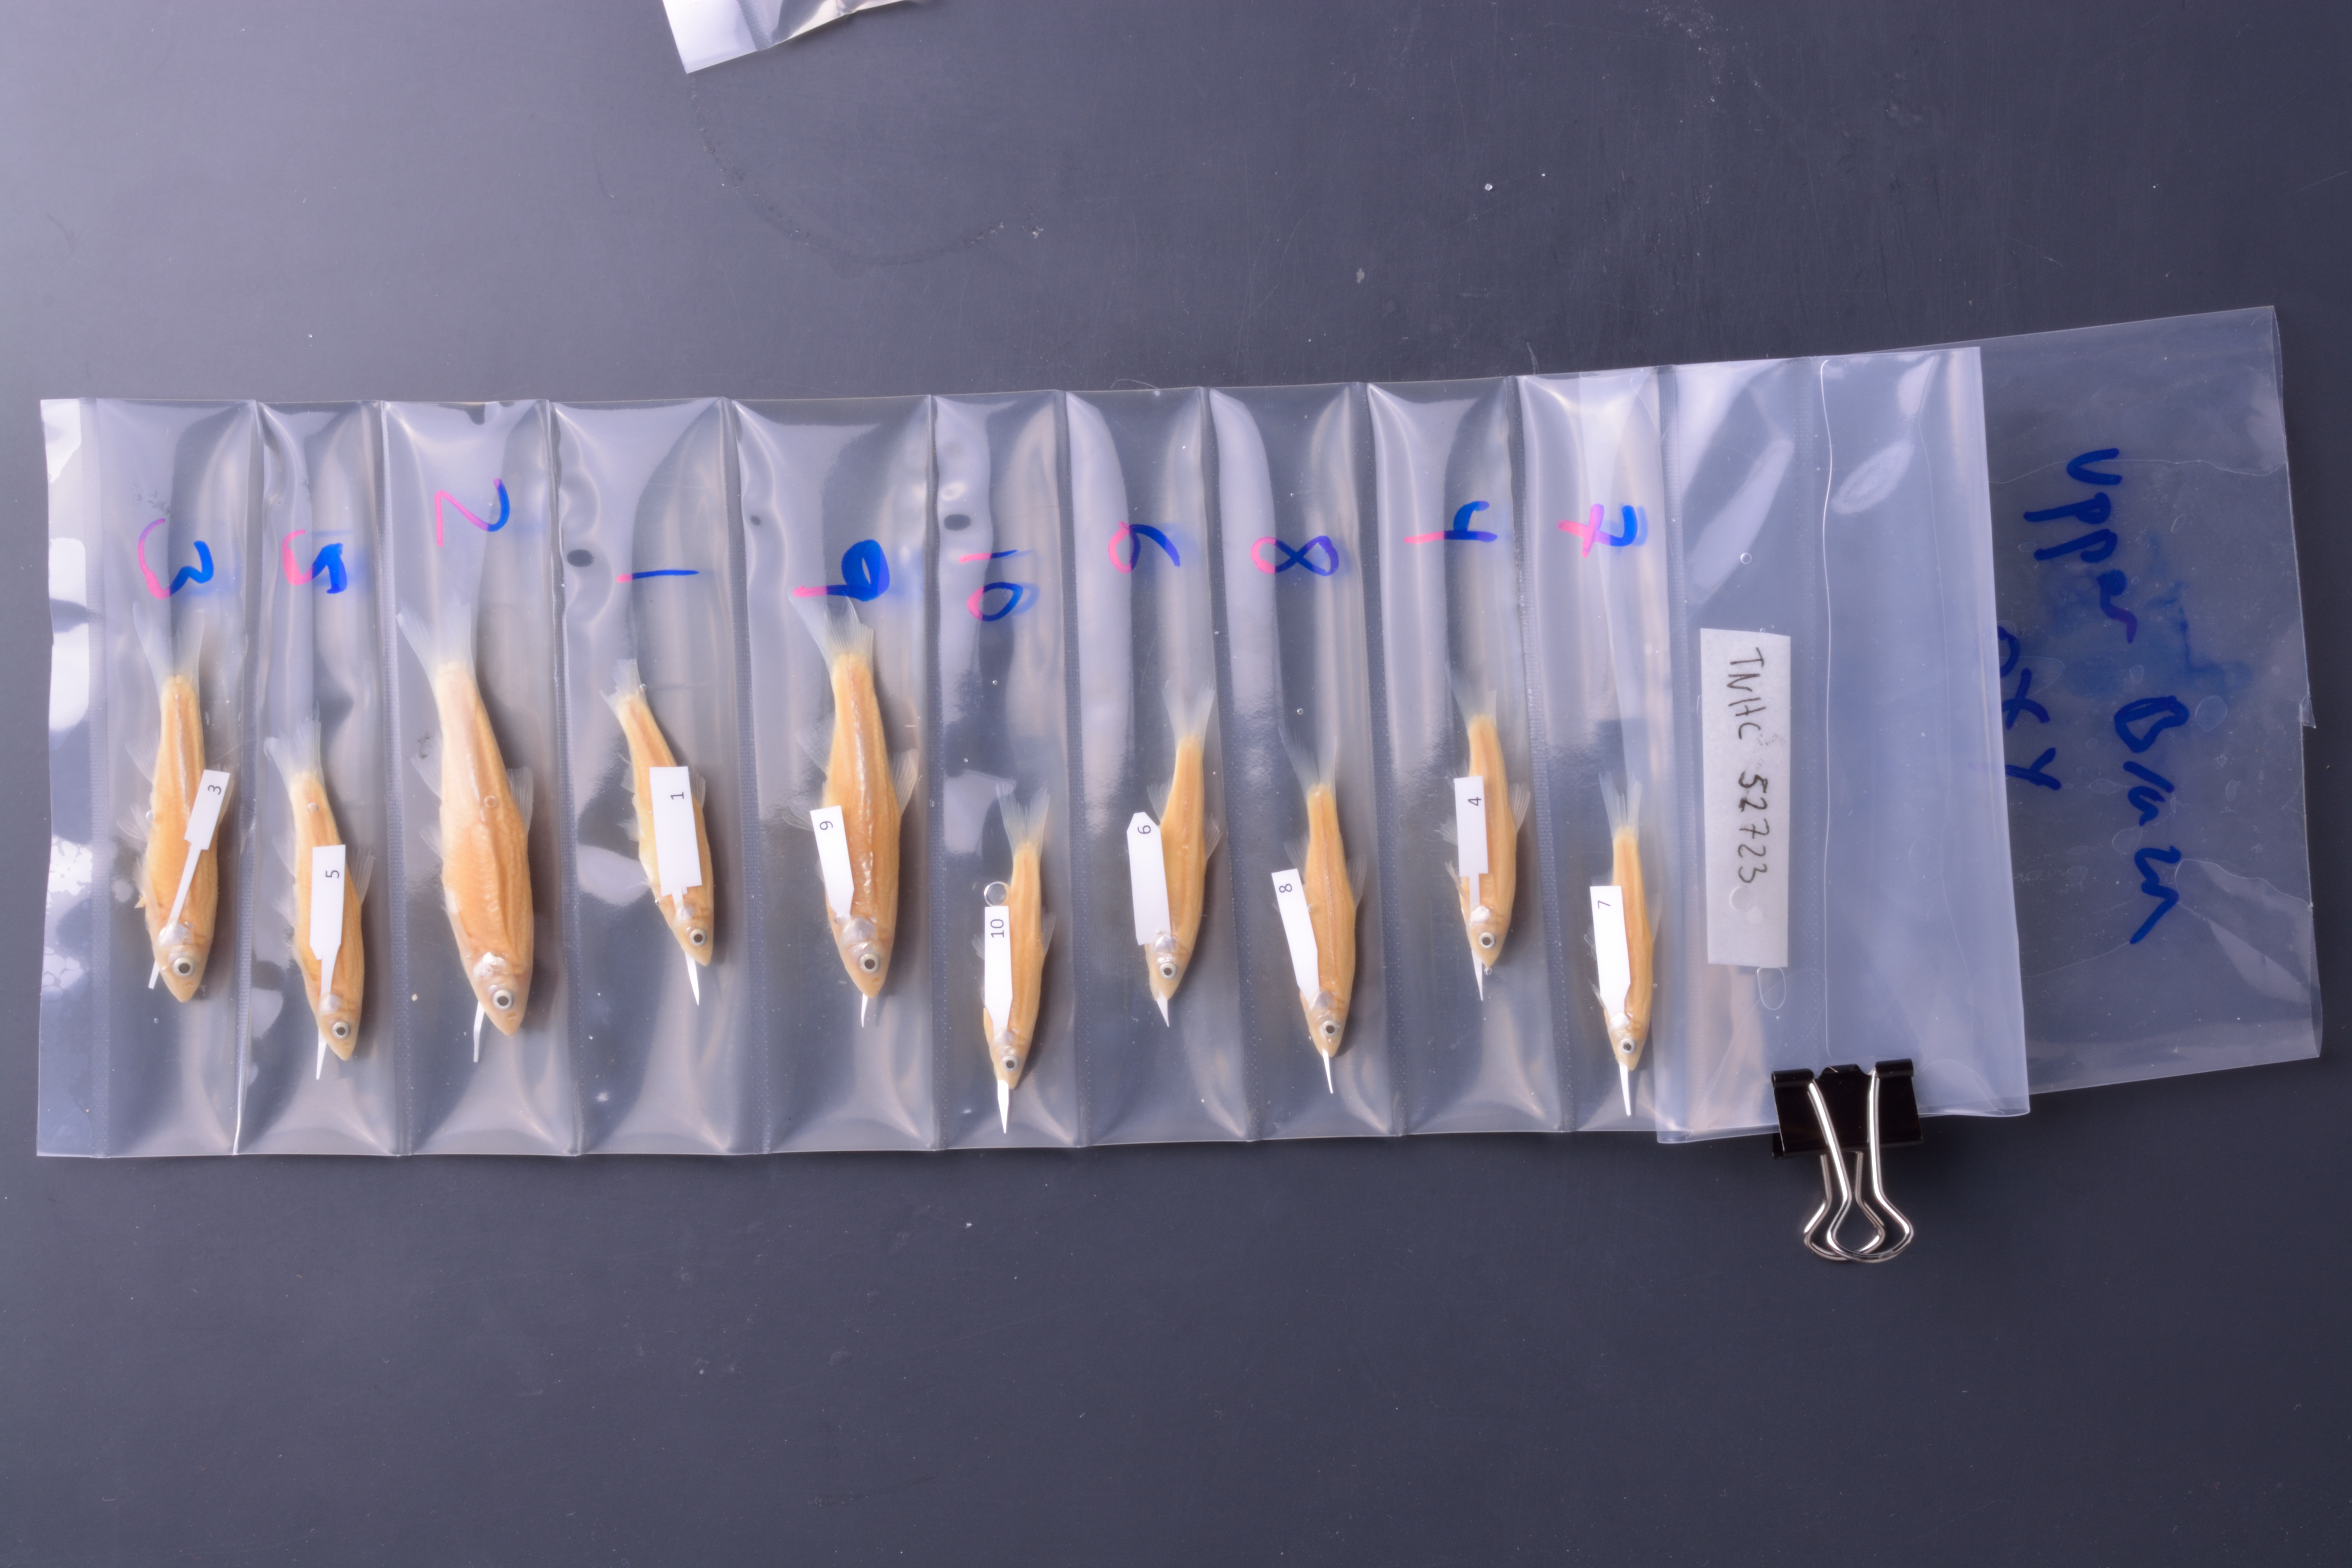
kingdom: Animalia
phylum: Chordata
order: Cypriniformes
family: Cyprinidae
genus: Notropis
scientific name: Notropis oxyrhynchus
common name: Sharpnose shiner
